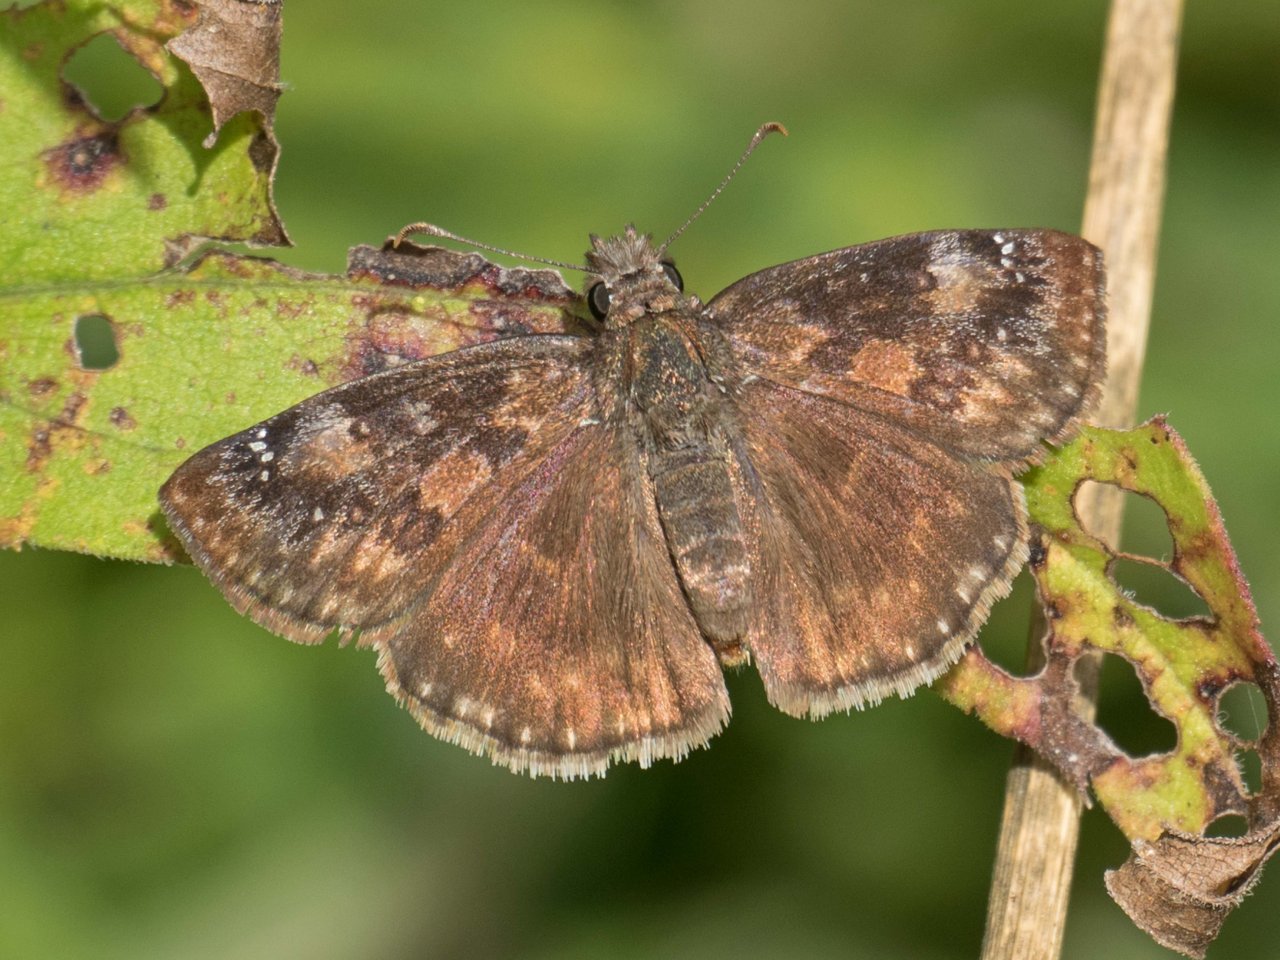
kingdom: Animalia
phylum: Arthropoda
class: Insecta
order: Lepidoptera
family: Hesperiidae
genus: Gesta
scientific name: Gesta
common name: Wild Indigo Duskywing
